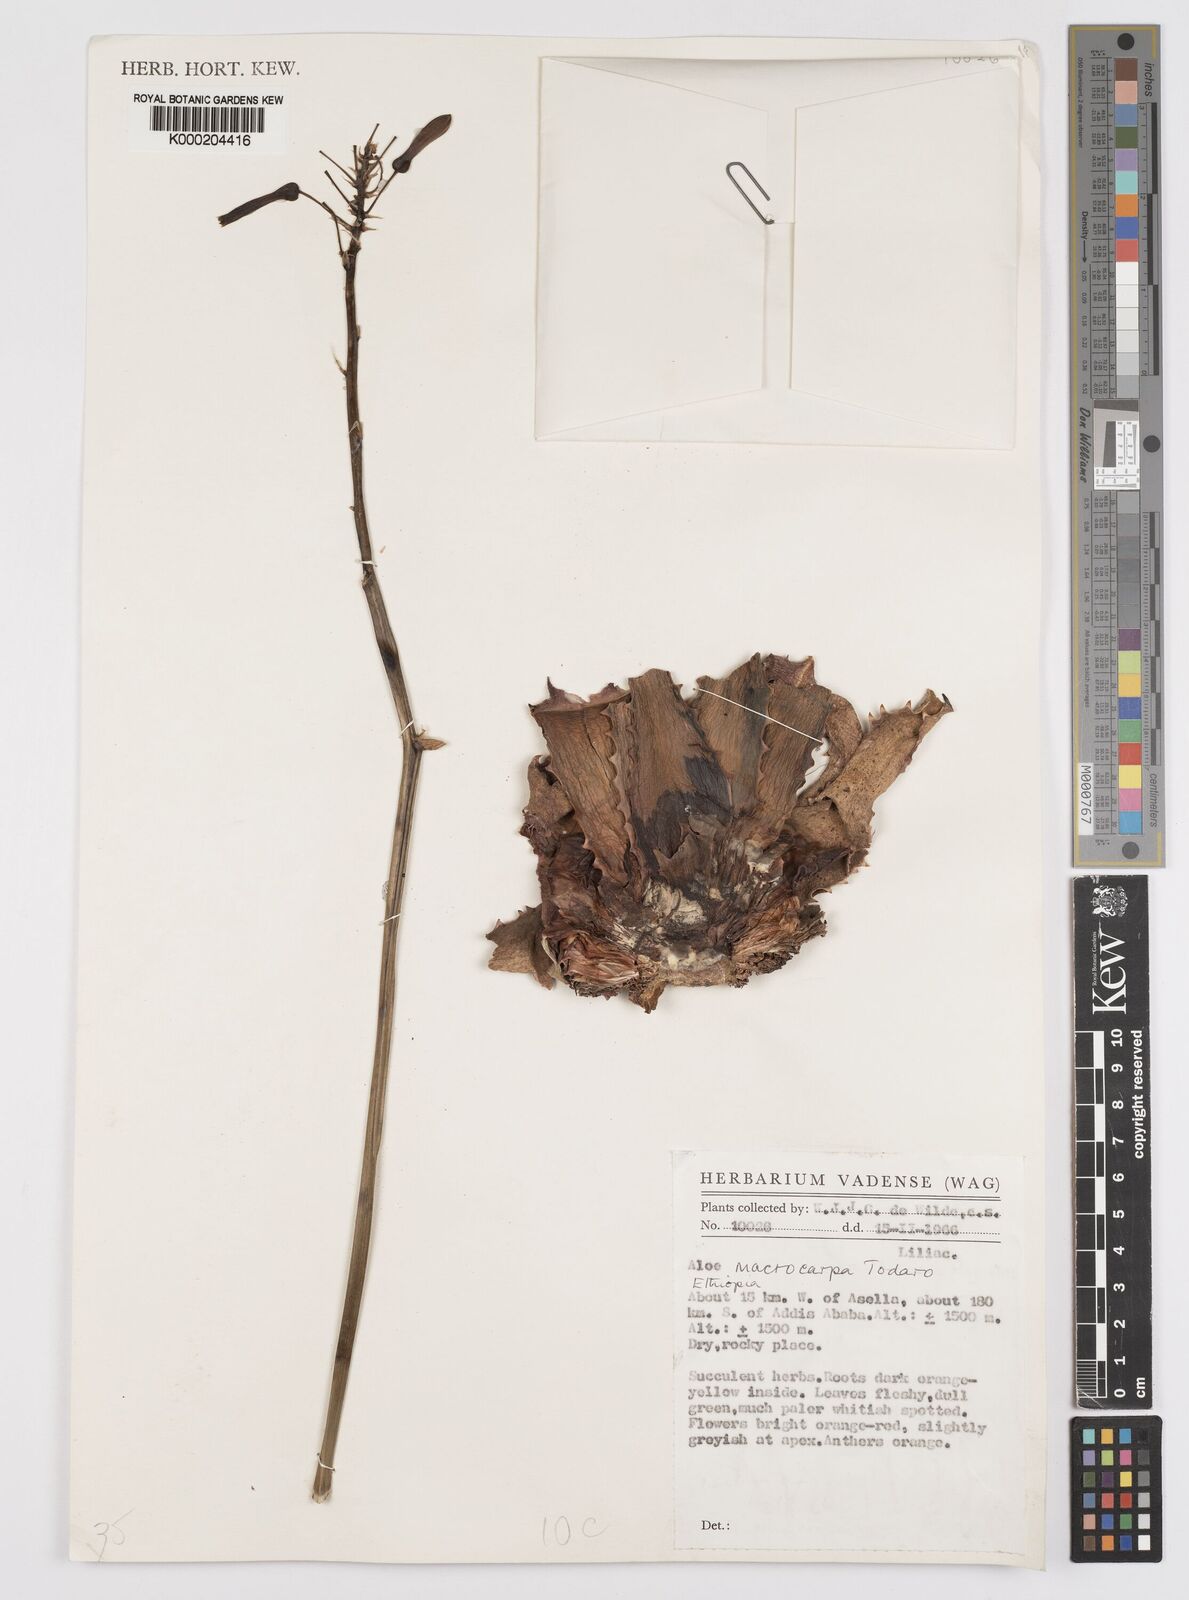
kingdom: Plantae
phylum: Tracheophyta
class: Liliopsida
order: Asparagales
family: Asphodelaceae
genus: Aloe
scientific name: Aloe macrocarpa
